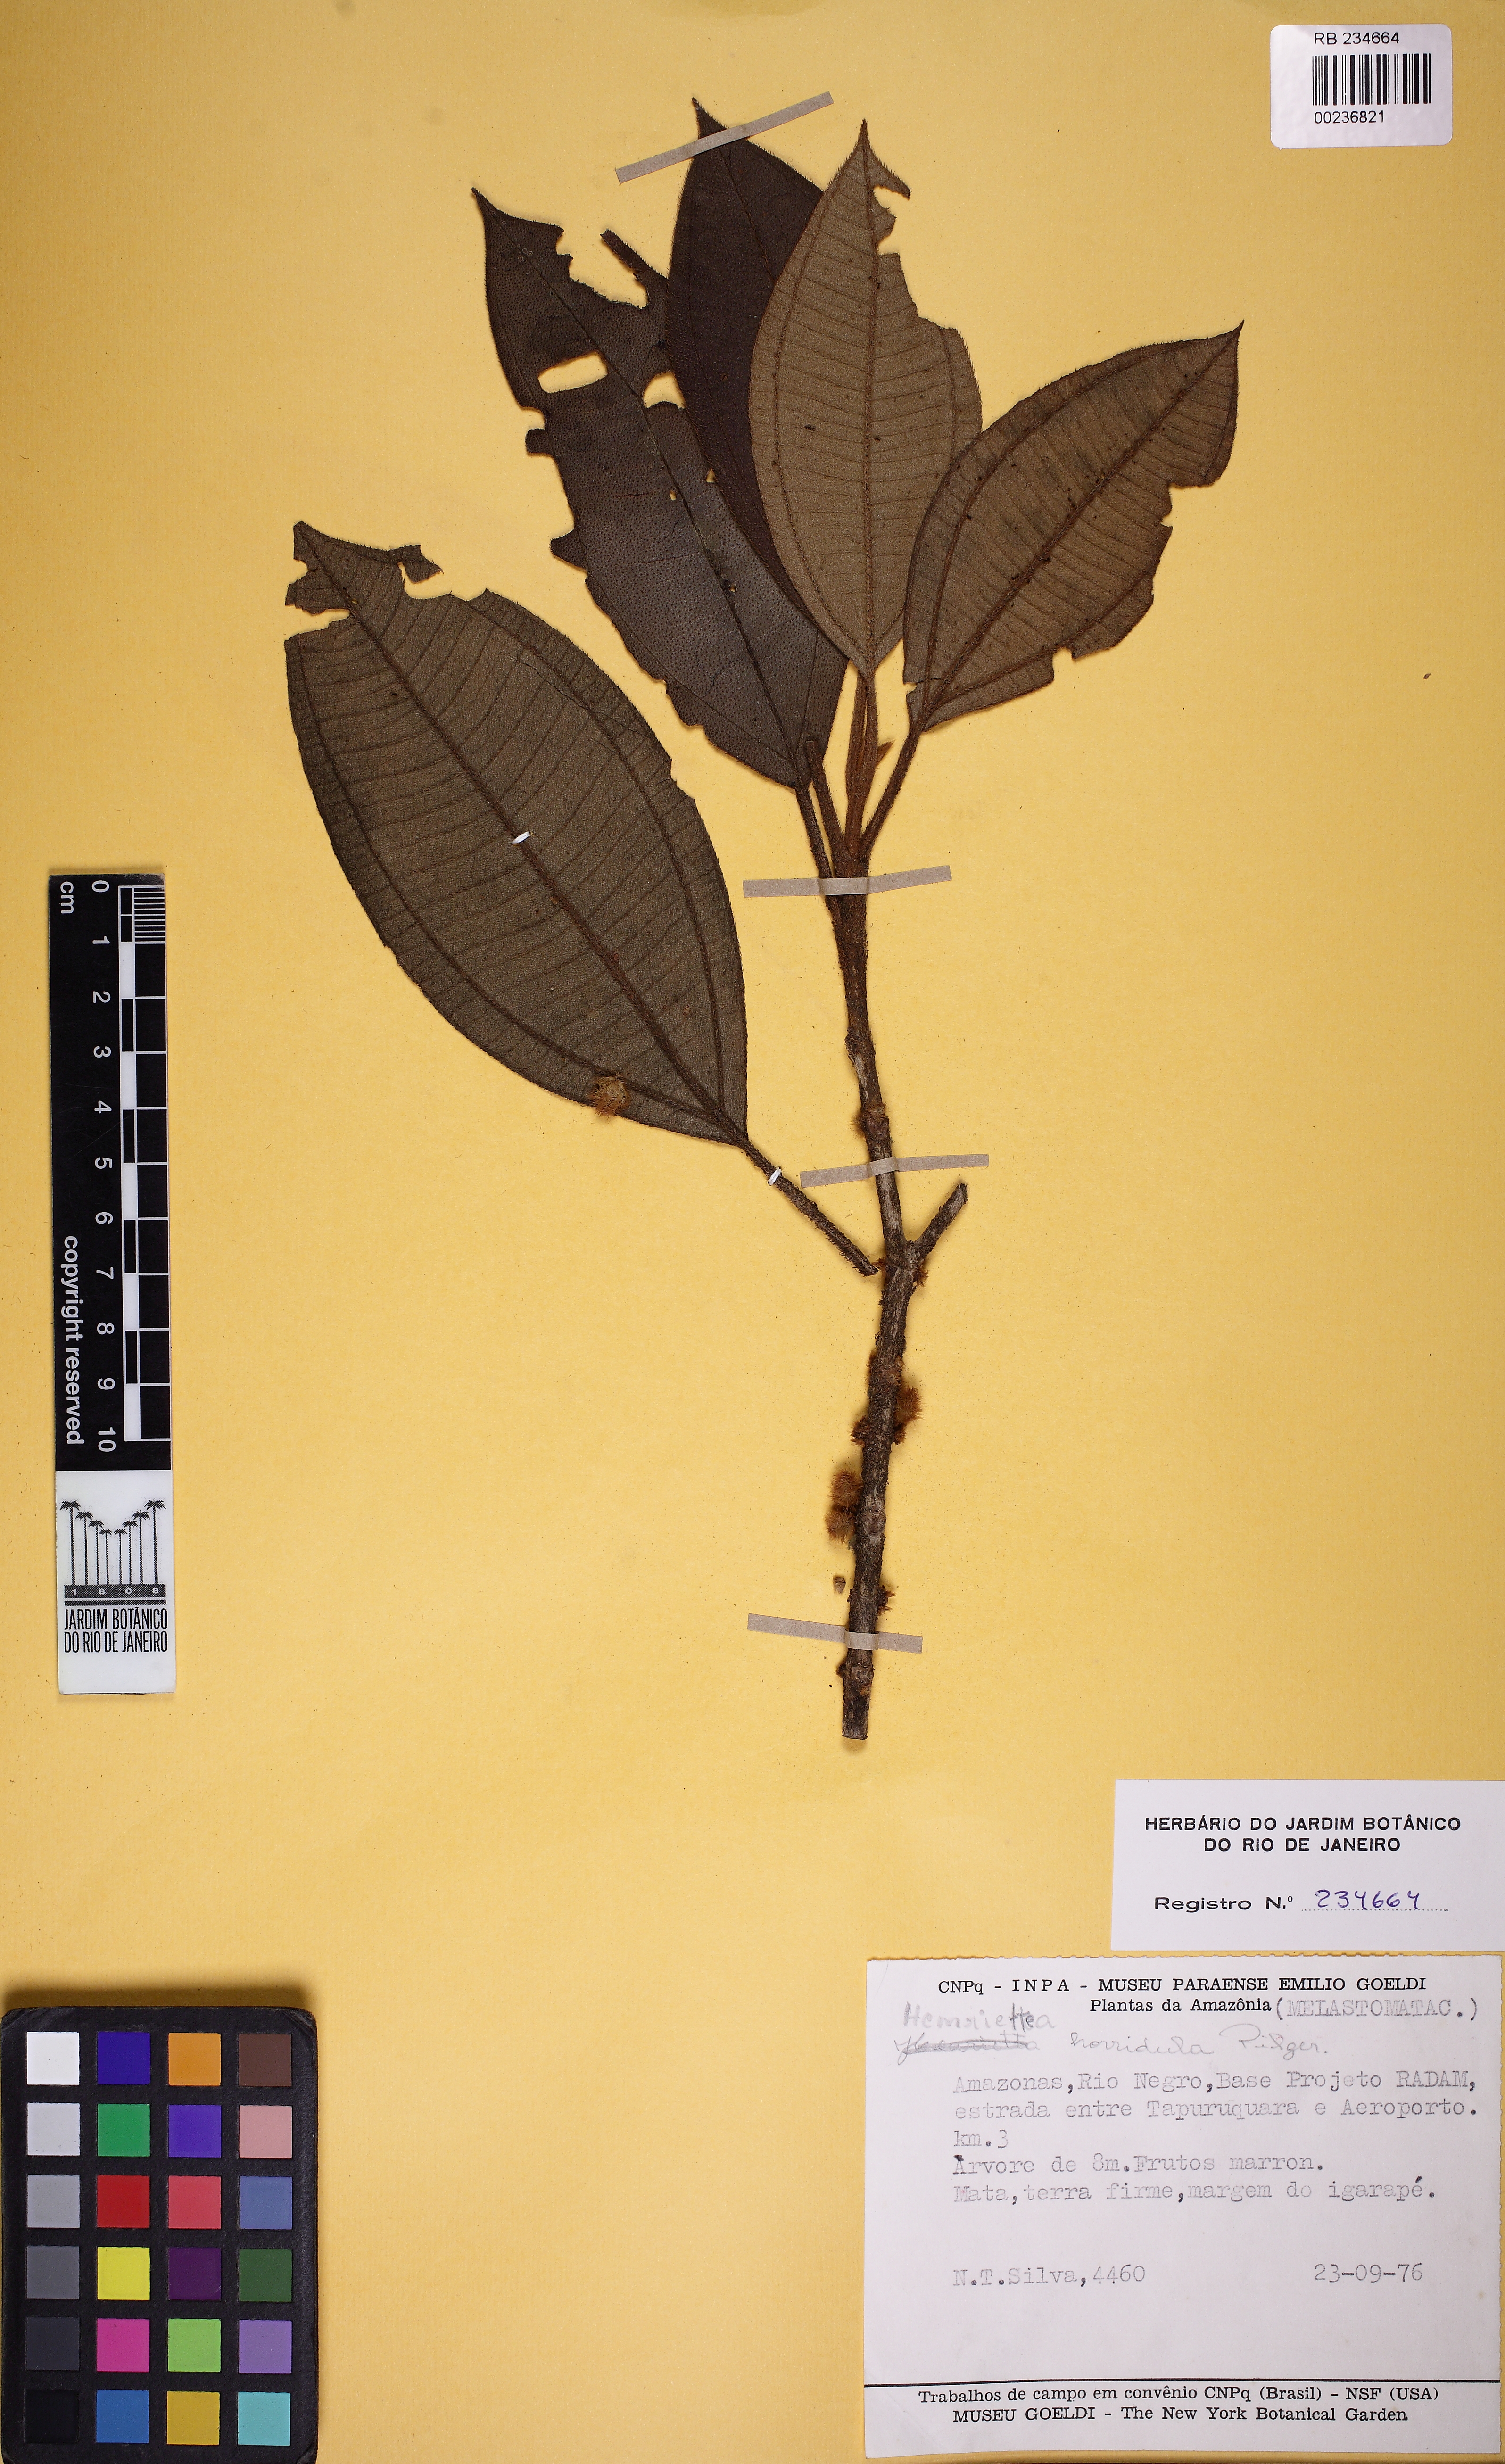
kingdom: Plantae
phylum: Tracheophyta
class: Magnoliopsida
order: Myrtales
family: Melastomataceae
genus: Henriettea
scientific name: Henriettea granulata
